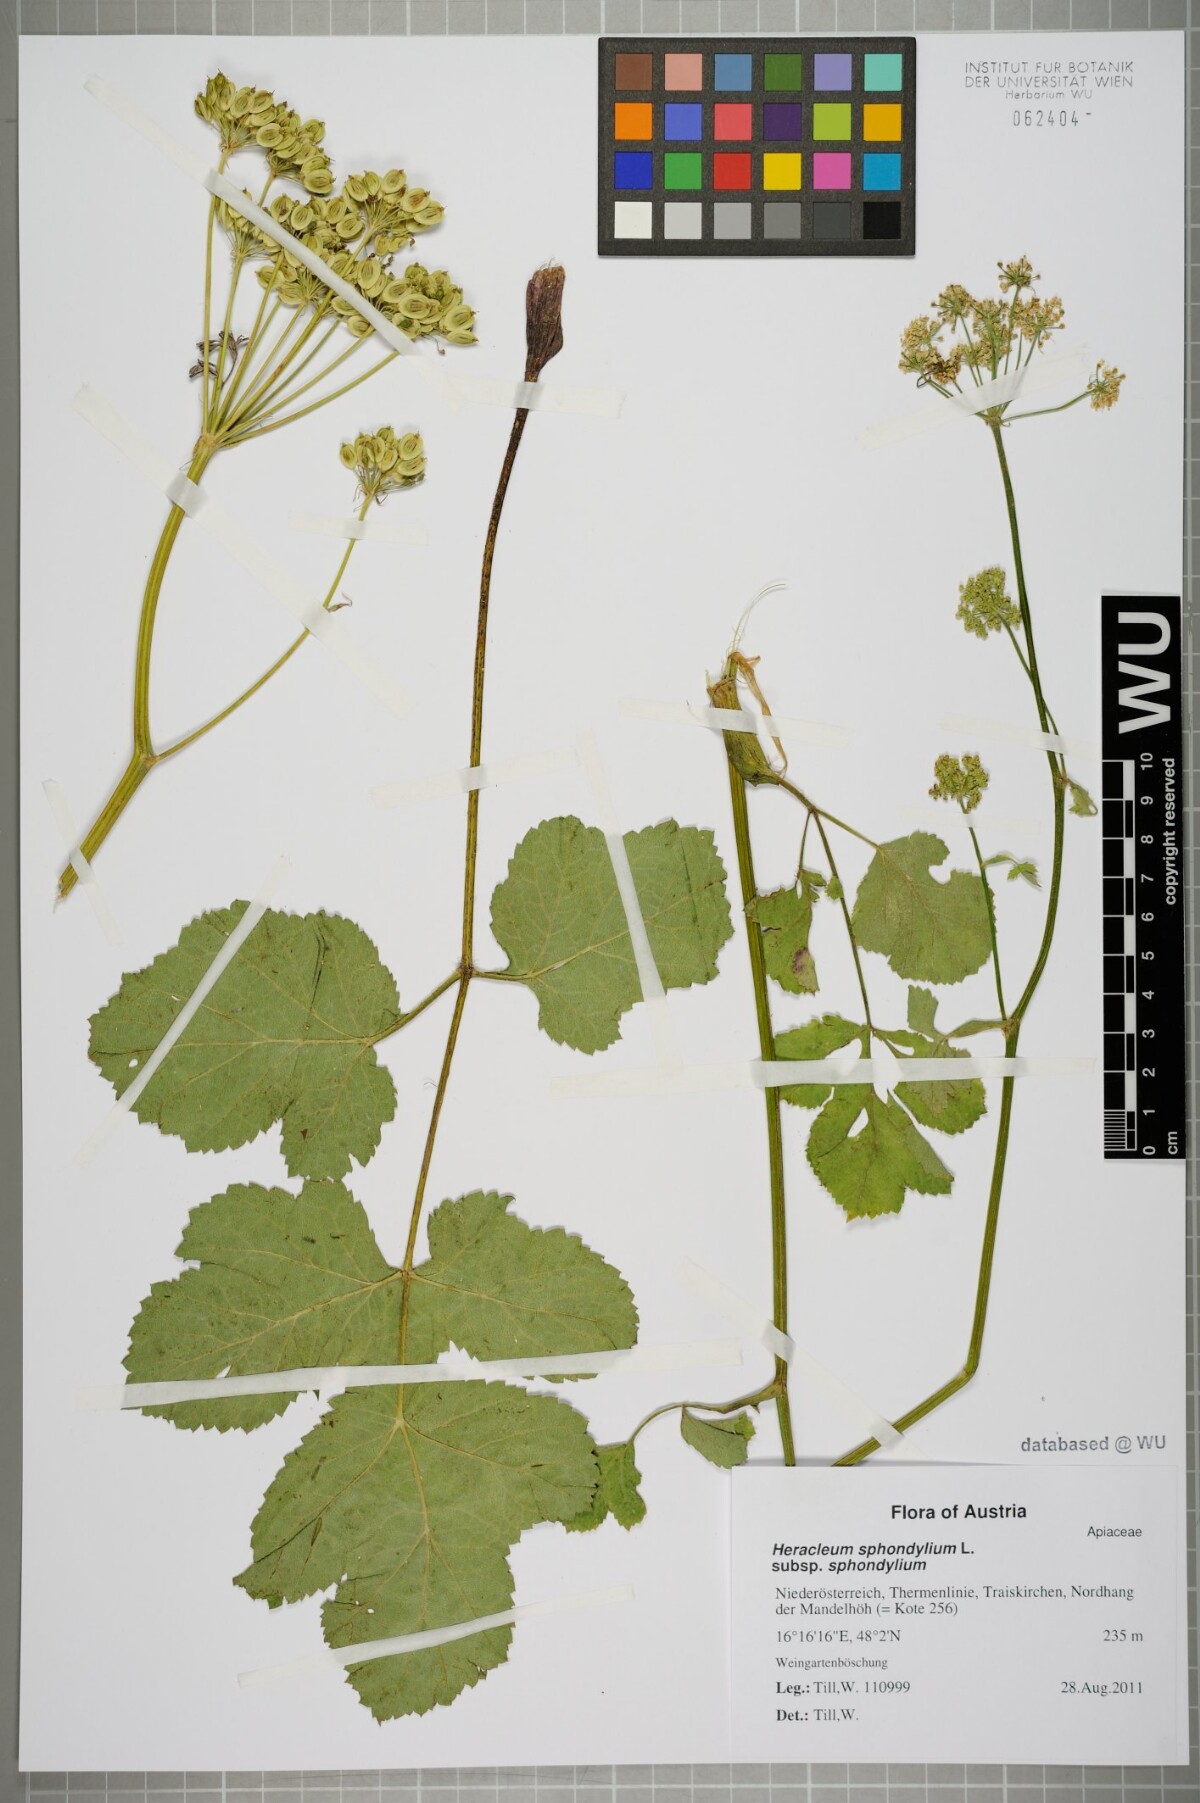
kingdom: Plantae
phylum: Tracheophyta
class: Magnoliopsida
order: Apiales
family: Apiaceae
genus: Heracleum
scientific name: Heracleum sphondylium
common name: Hogweed
